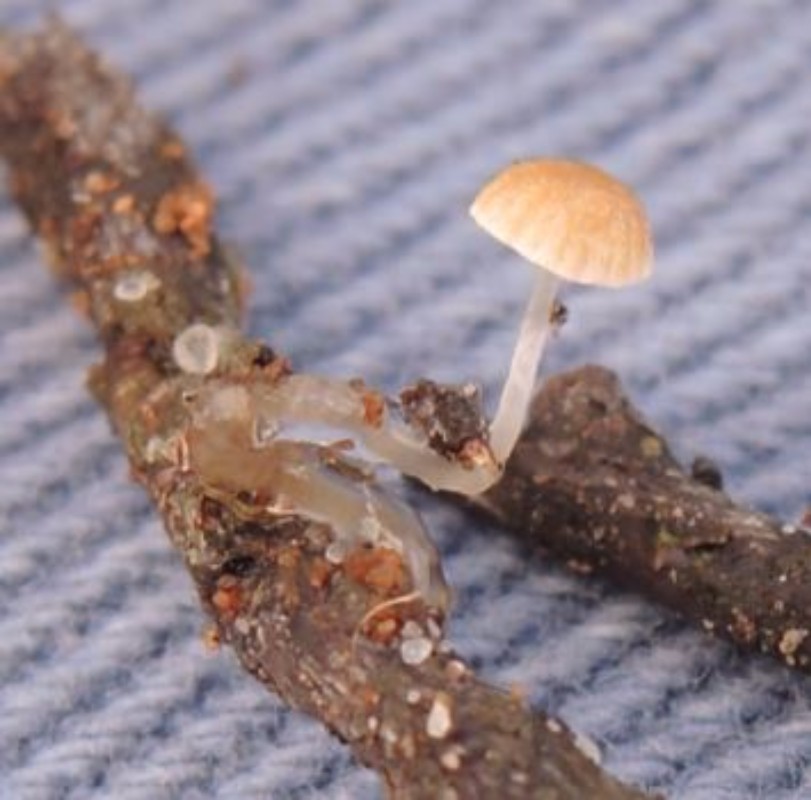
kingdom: Fungi
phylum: Basidiomycota
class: Agaricomycetes
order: Agaricales
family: Mycenaceae
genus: Roridomyces
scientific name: Roridomyces roridus
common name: slimfod
